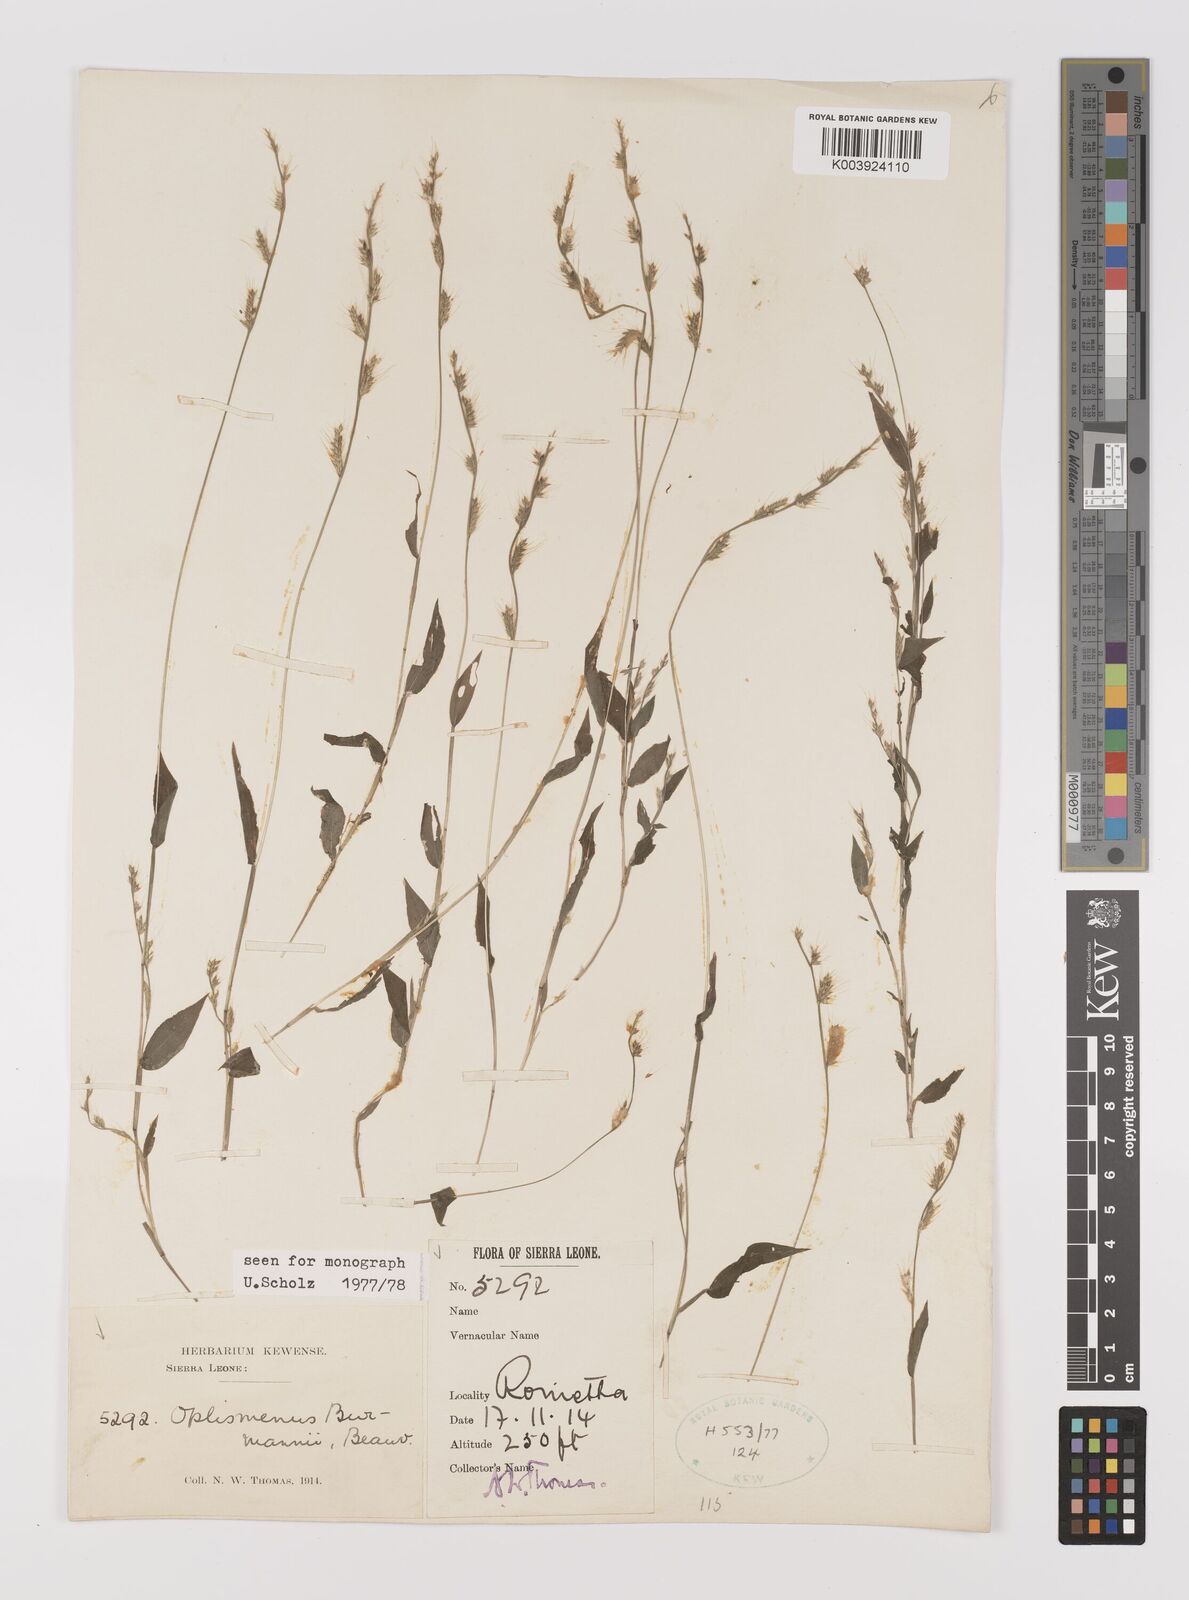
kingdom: Plantae
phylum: Tracheophyta
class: Liliopsida
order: Poales
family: Poaceae
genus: Oplismenus
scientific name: Oplismenus burmanni
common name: Burmann's basketgrass
